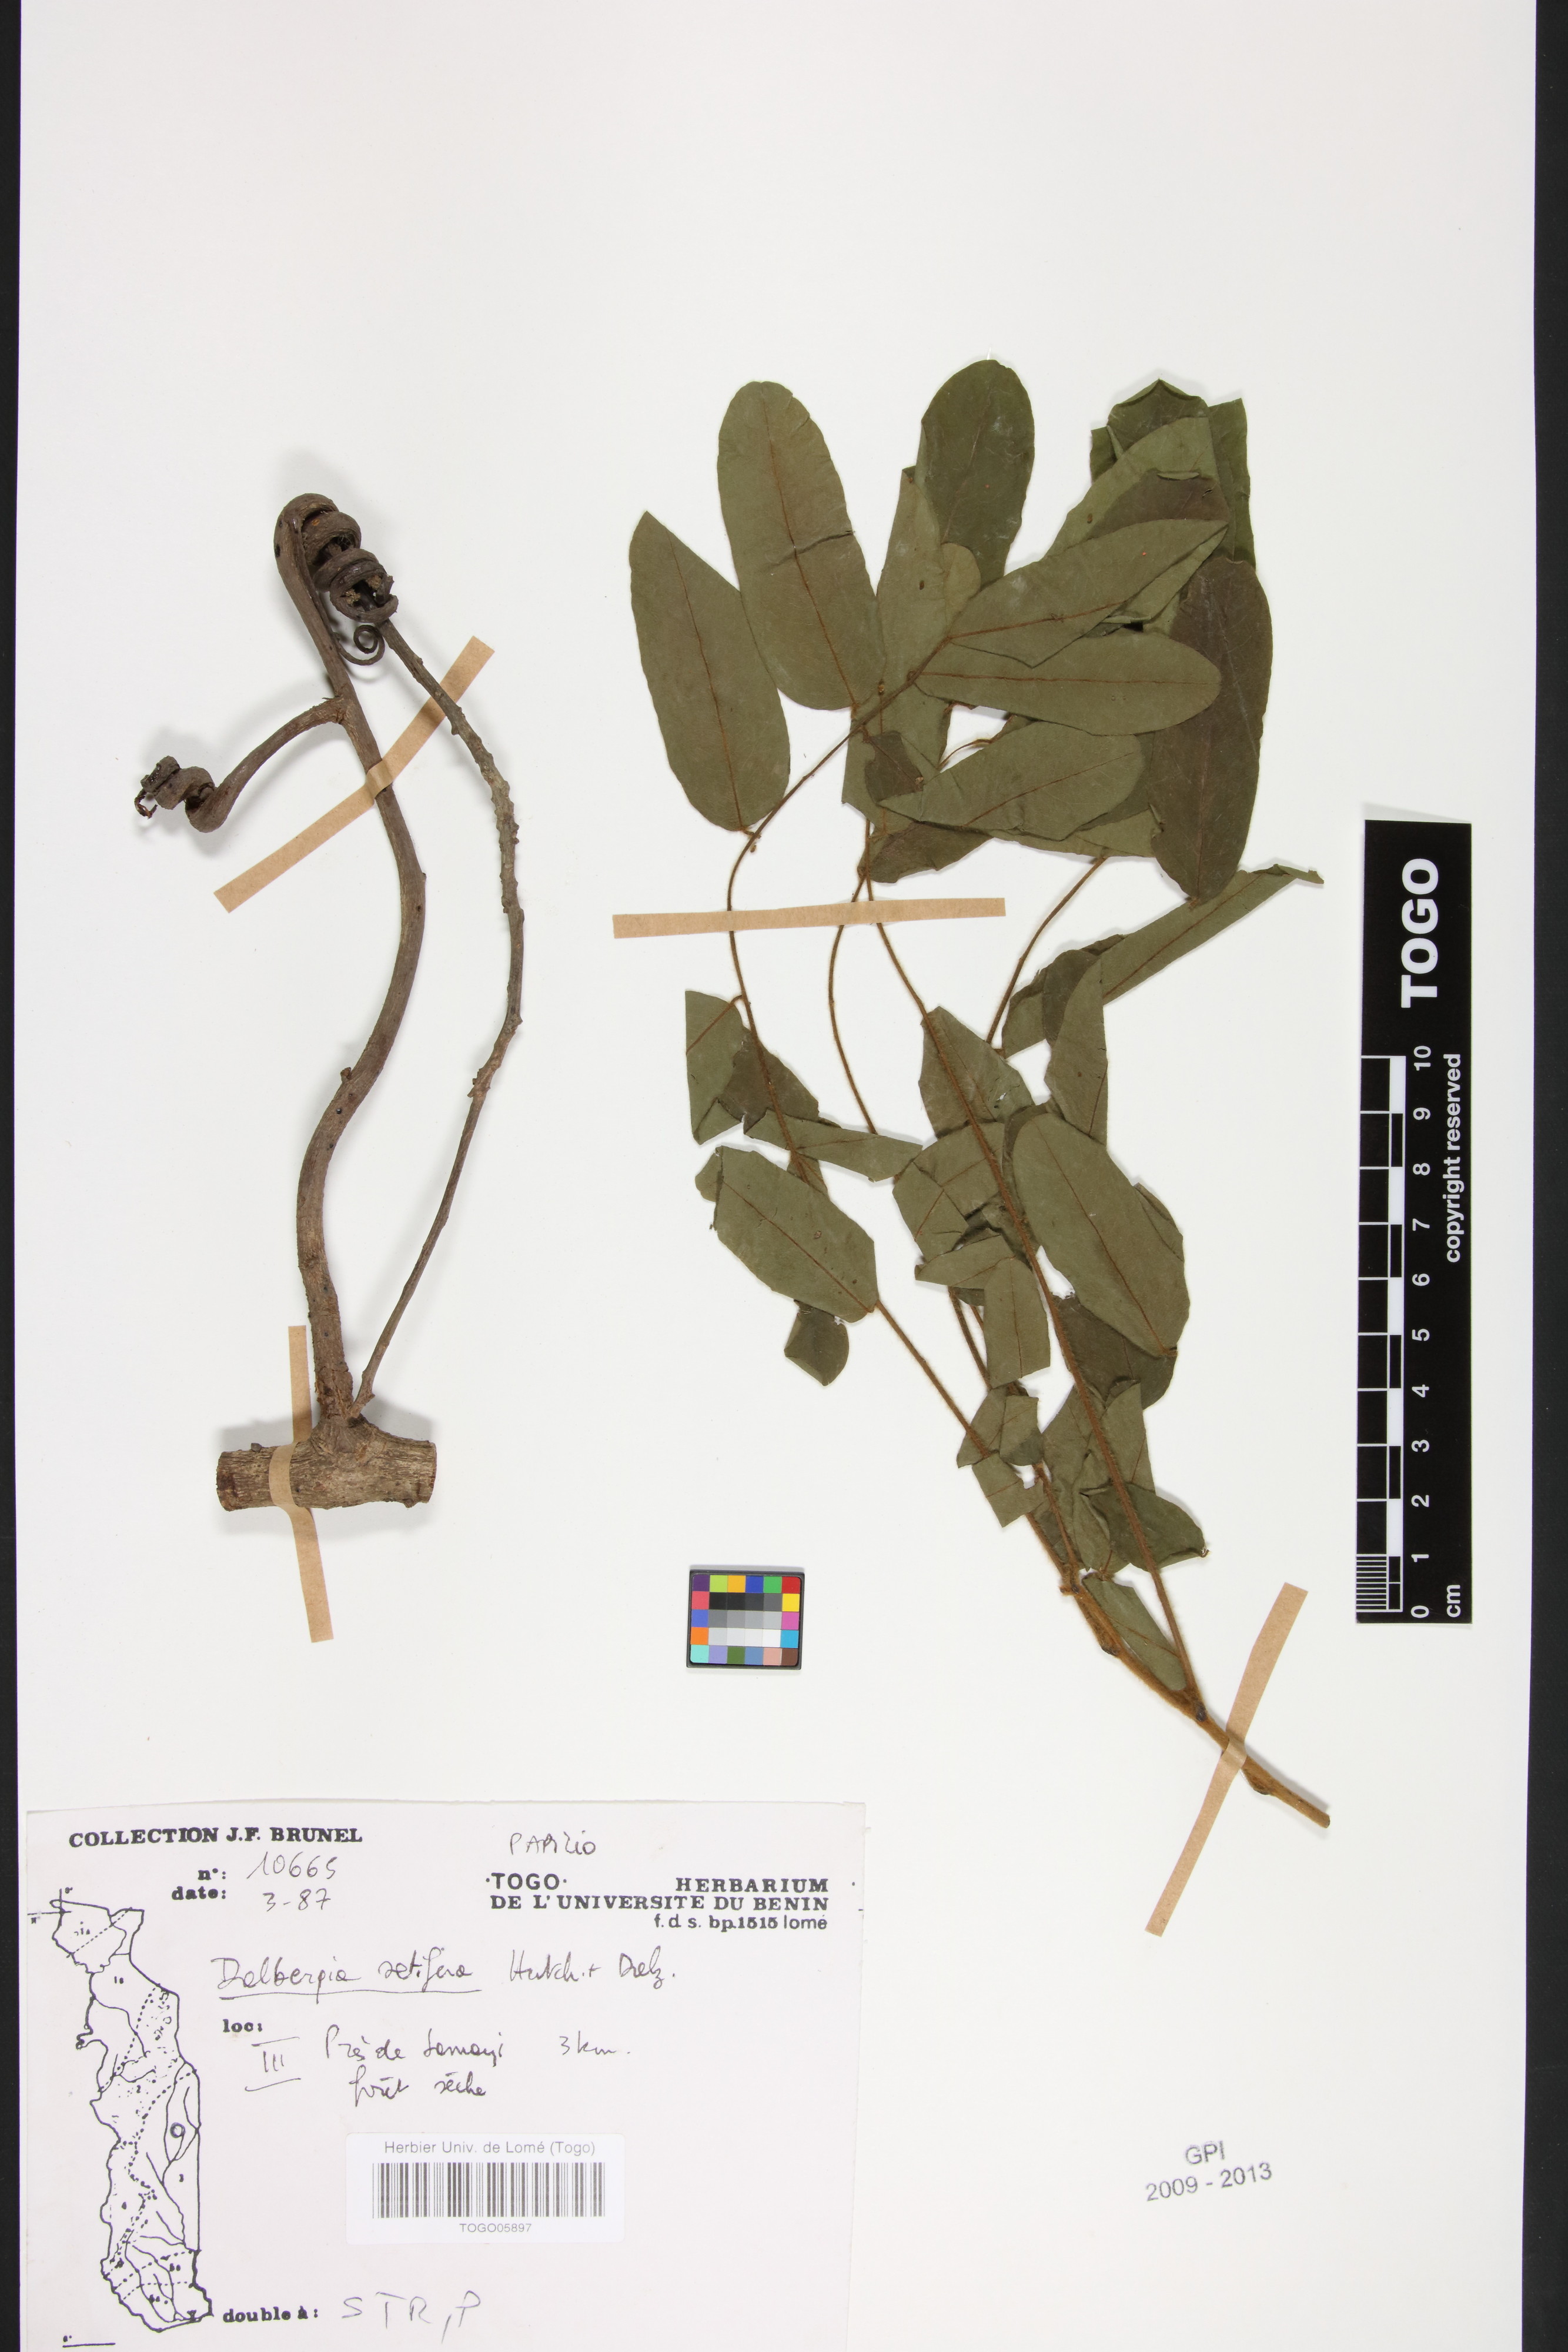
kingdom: Plantae
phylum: Tracheophyta
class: Magnoliopsida
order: Fabales
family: Fabaceae
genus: Dalbergia
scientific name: Dalbergia setifera
